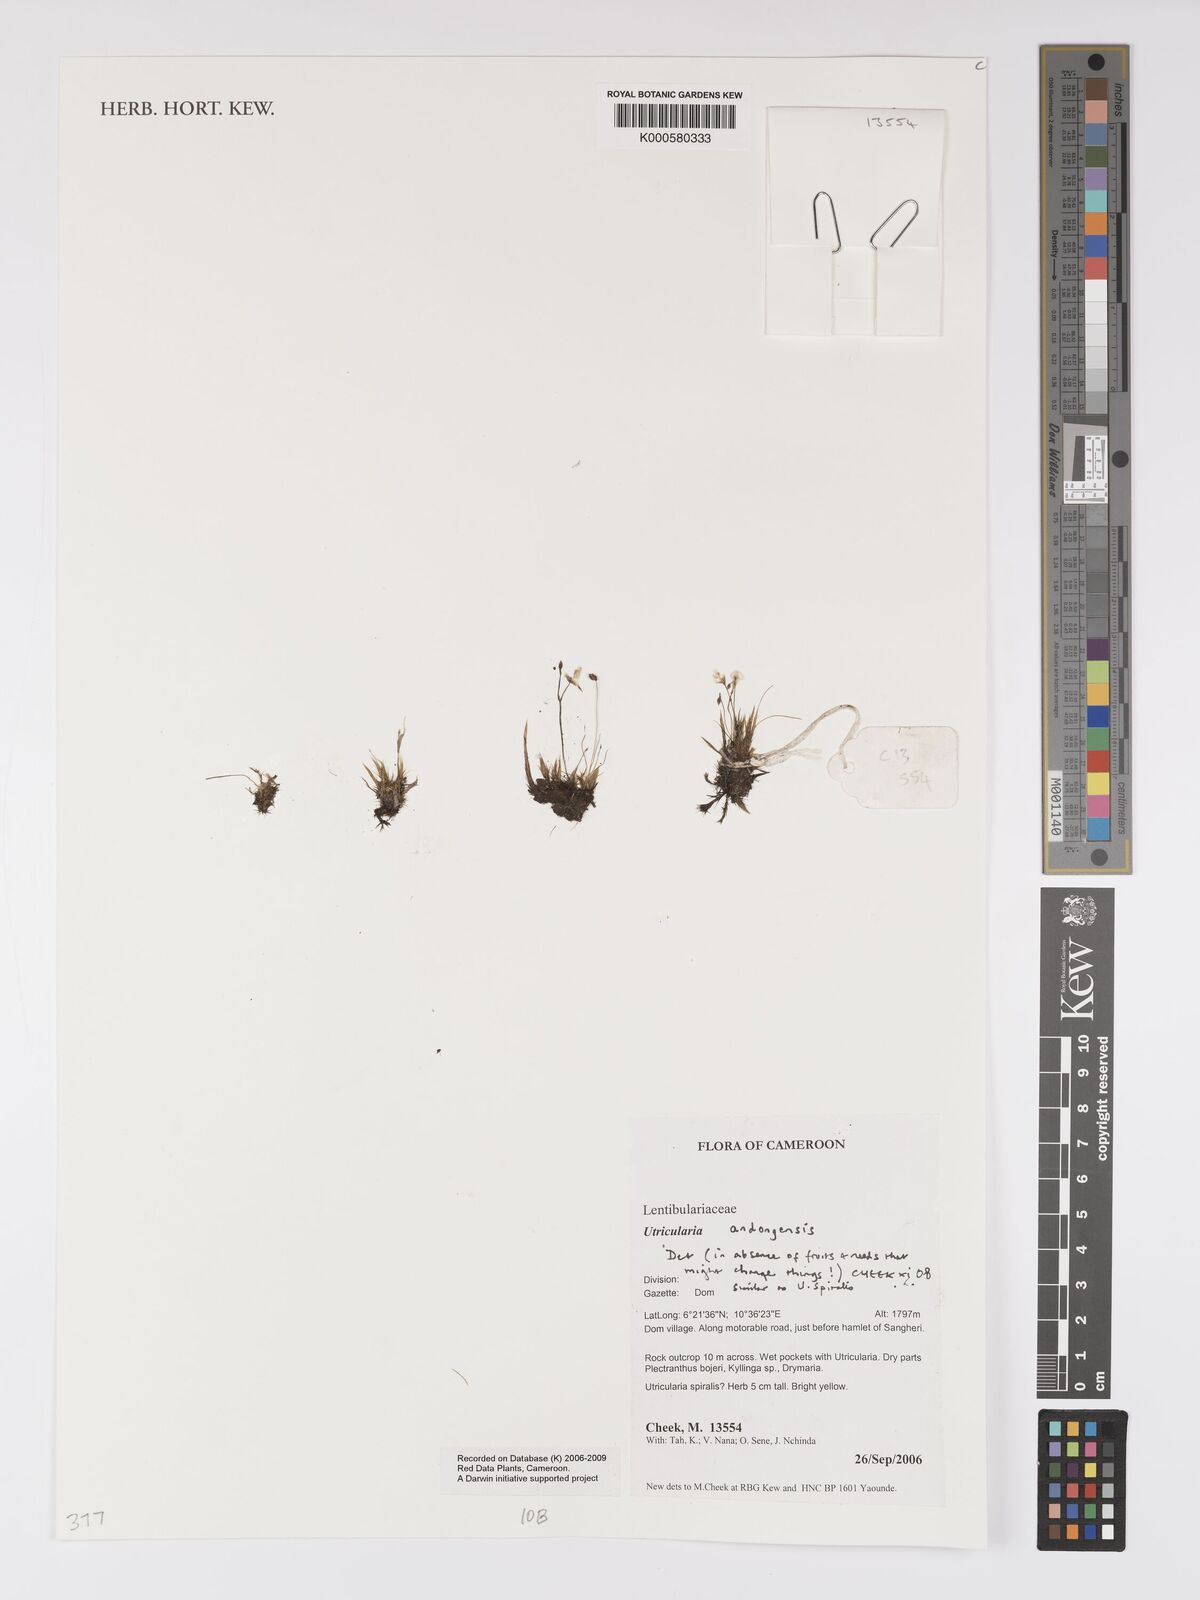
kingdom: Plantae
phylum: Tracheophyta
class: Magnoliopsida
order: Lamiales
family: Lentibulariaceae
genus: Utricularia
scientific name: Utricularia andongensis
